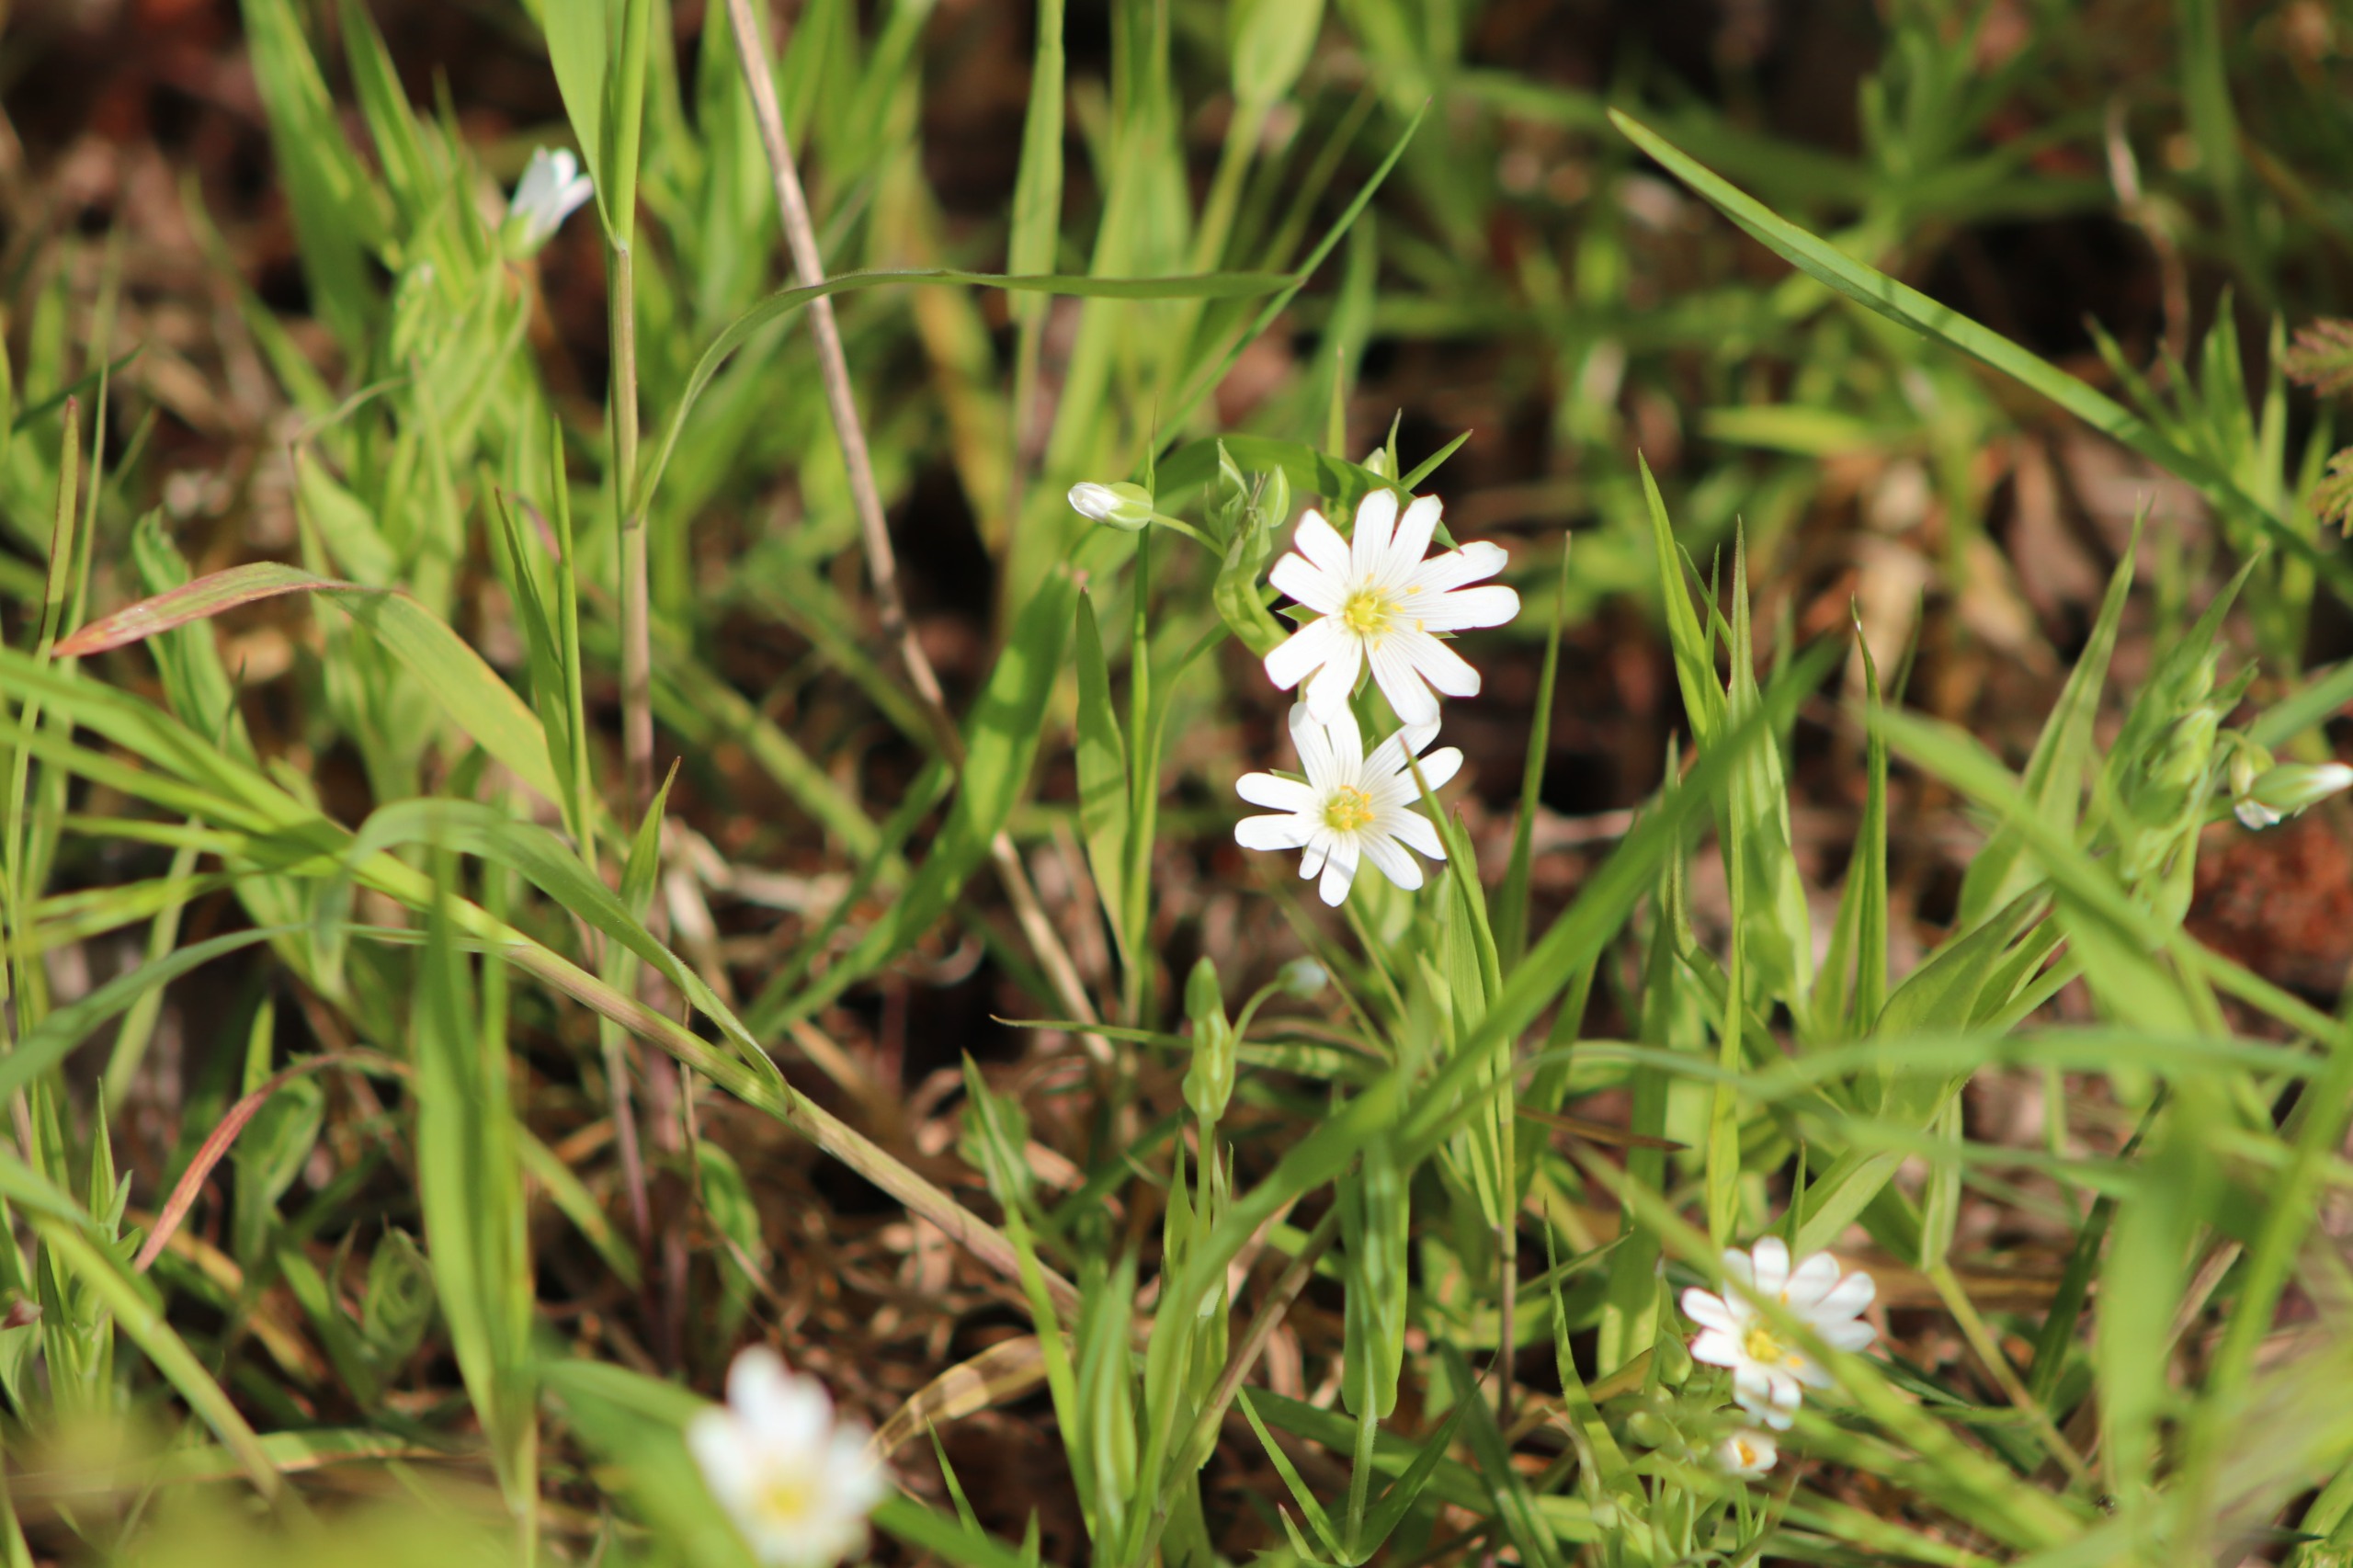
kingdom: Plantae
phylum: Tracheophyta
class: Magnoliopsida
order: Caryophyllales
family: Caryophyllaceae
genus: Rabelera
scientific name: Rabelera holostea
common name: Stor fladstjerne
